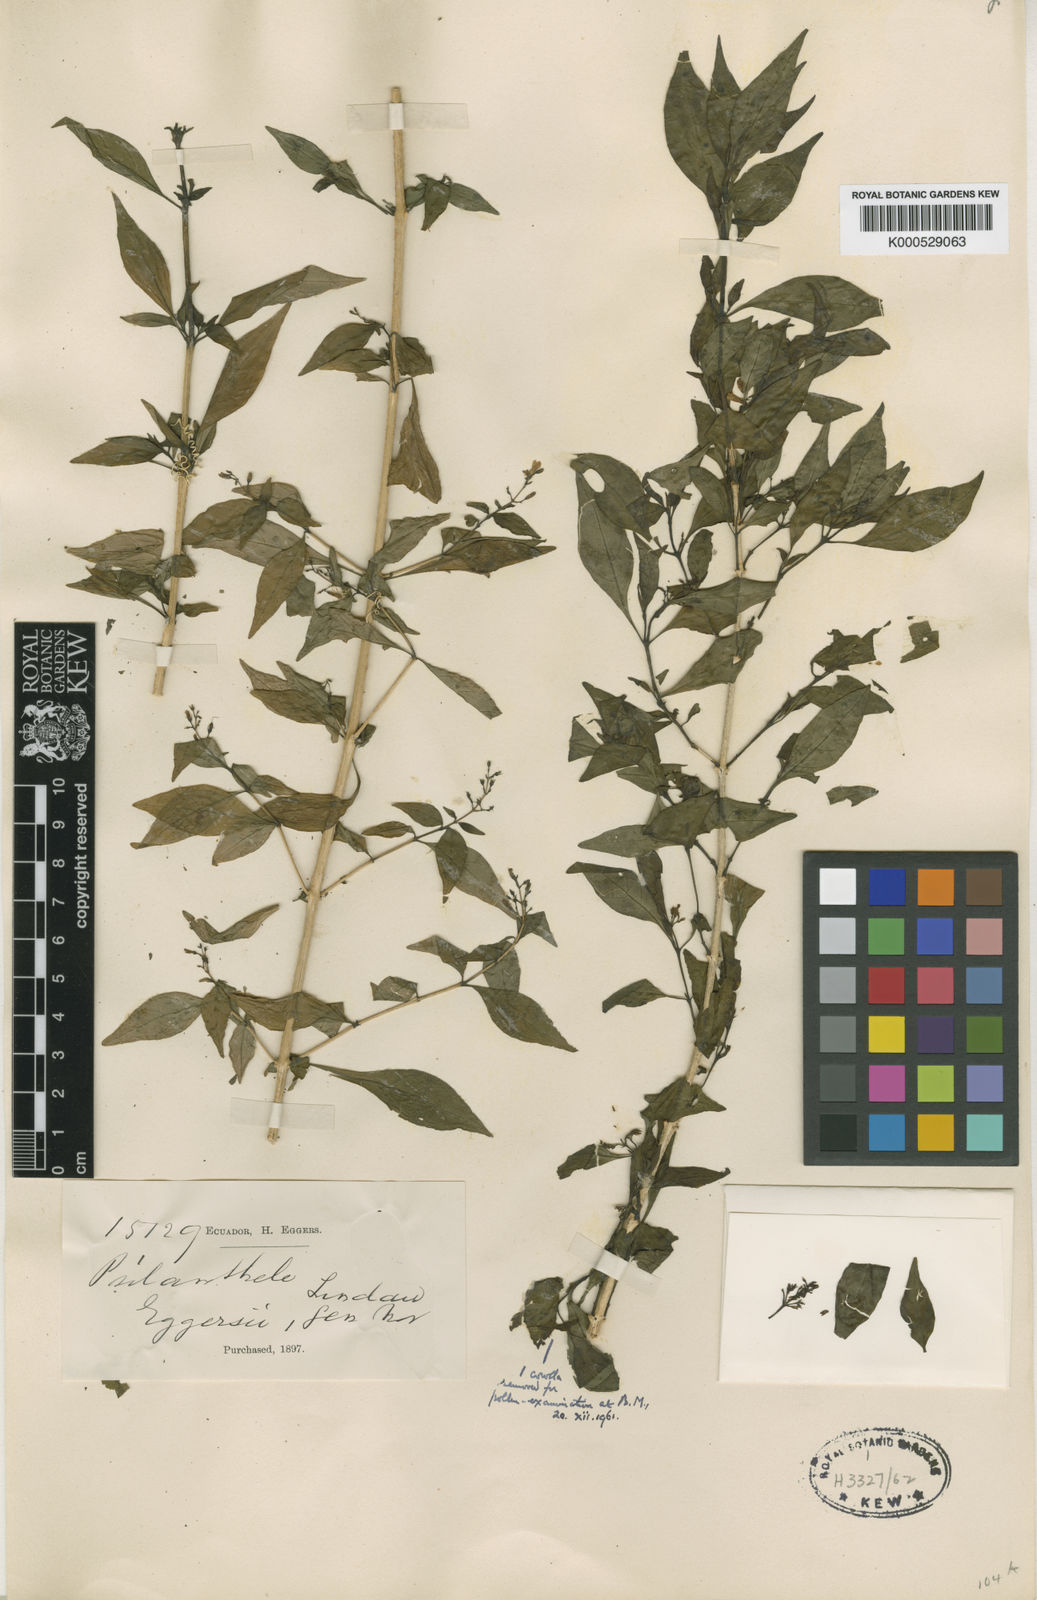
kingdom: Plantae
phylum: Tracheophyta
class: Magnoliopsida
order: Lamiales
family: Acanthaceae
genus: Psilanthele
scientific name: Psilanthele eggersii
